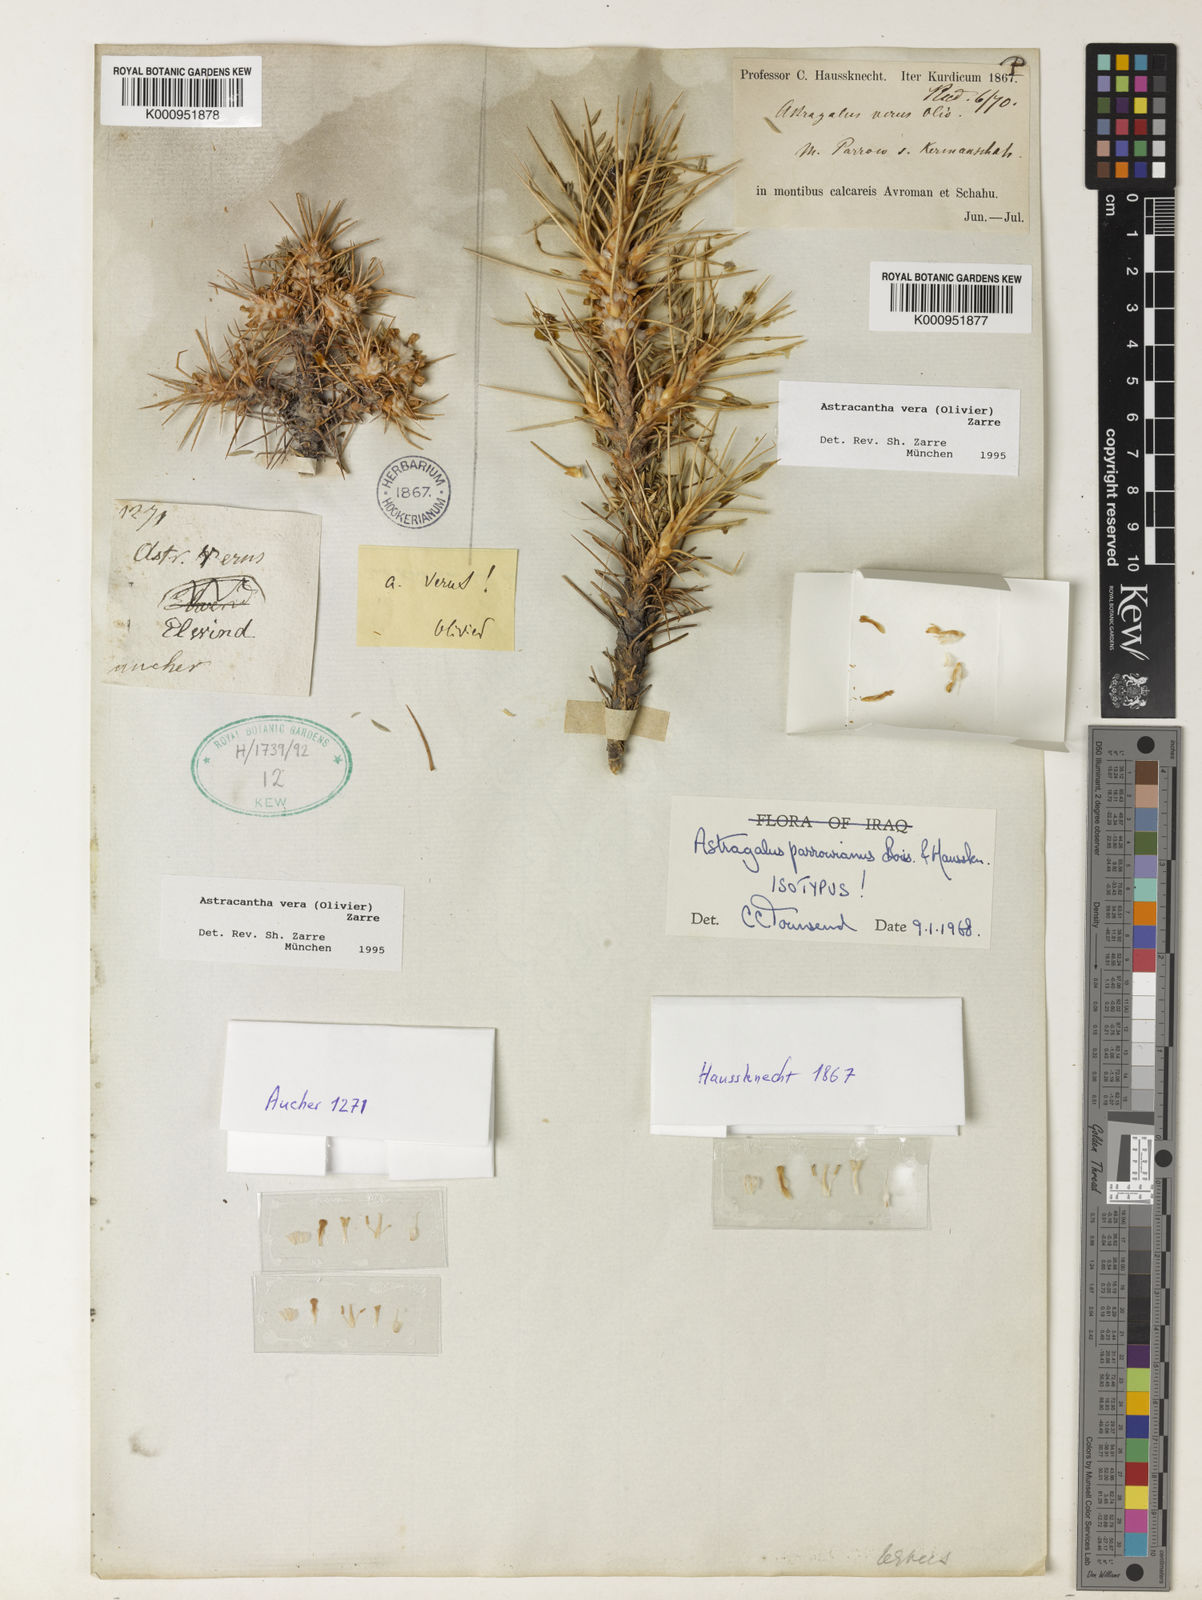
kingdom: Plantae
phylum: Tracheophyta
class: Magnoliopsida
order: Fabales
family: Fabaceae
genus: Astragalus
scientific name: Astragalus verus
